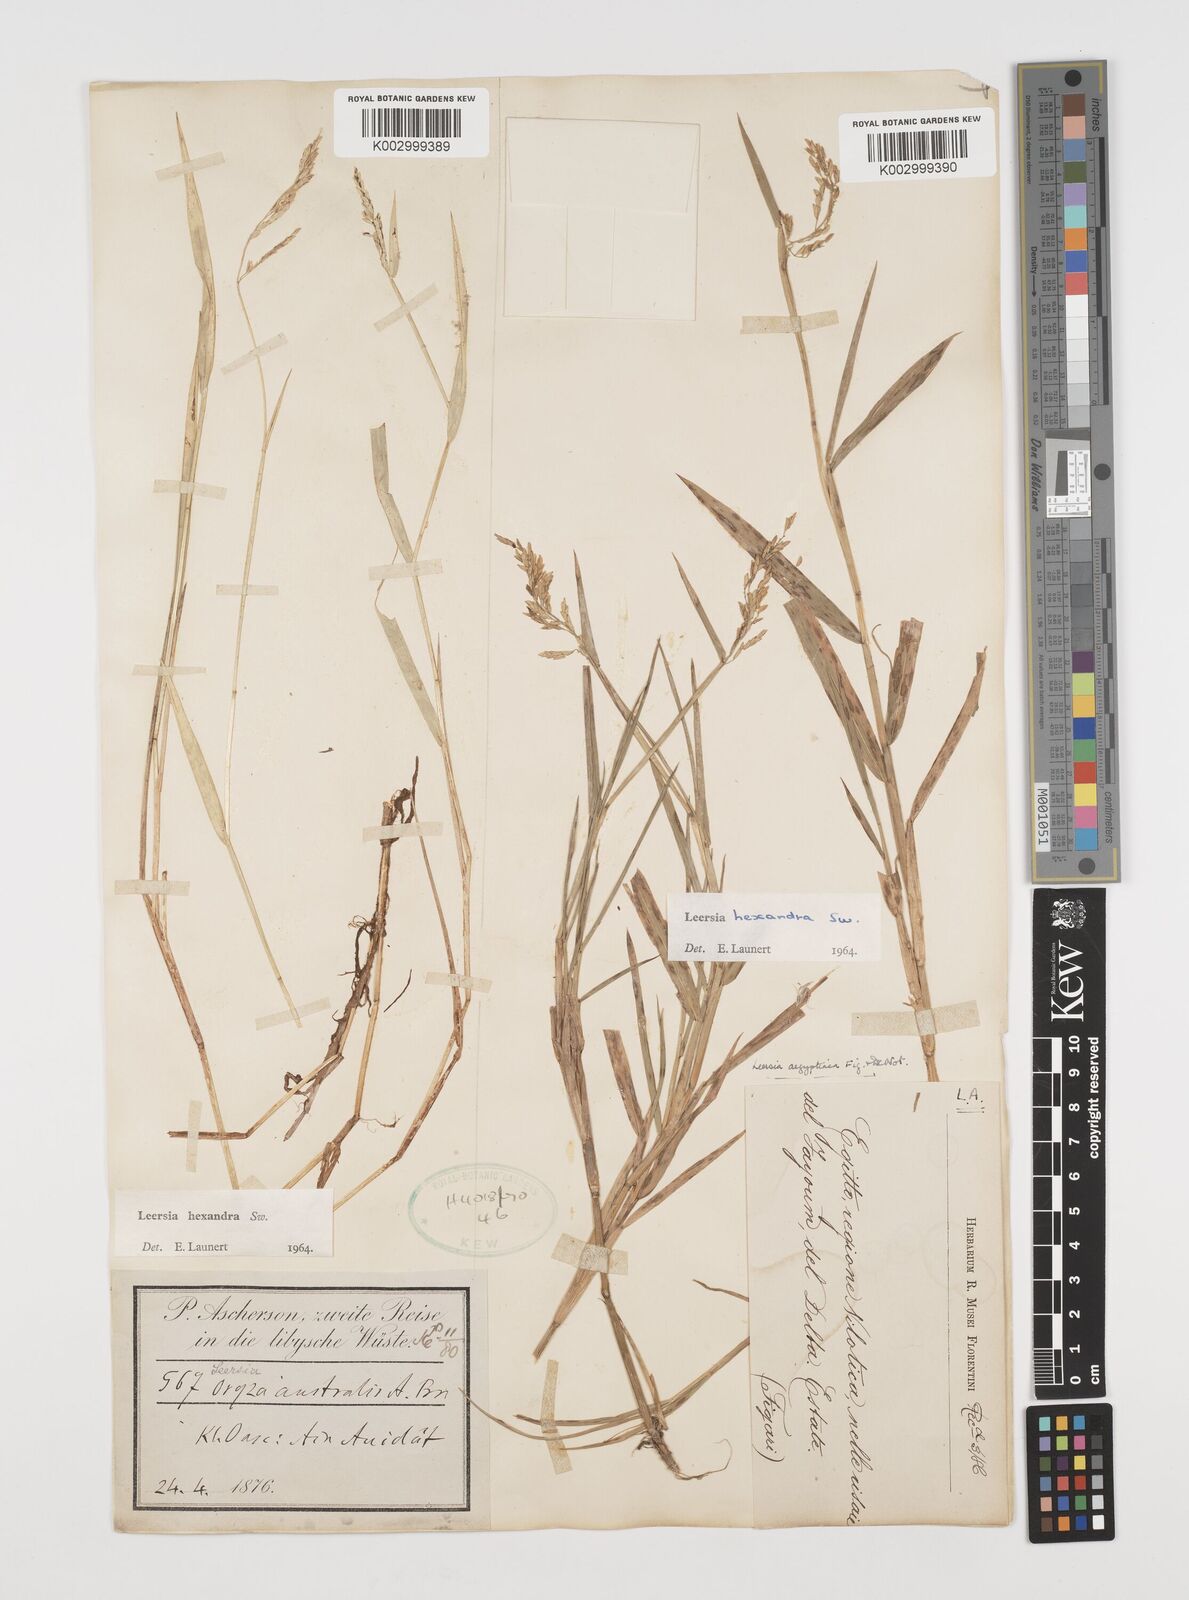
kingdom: Plantae
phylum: Tracheophyta
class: Liliopsida
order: Poales
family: Poaceae
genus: Leersia
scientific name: Leersia hexandra
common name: Southern cut grass
